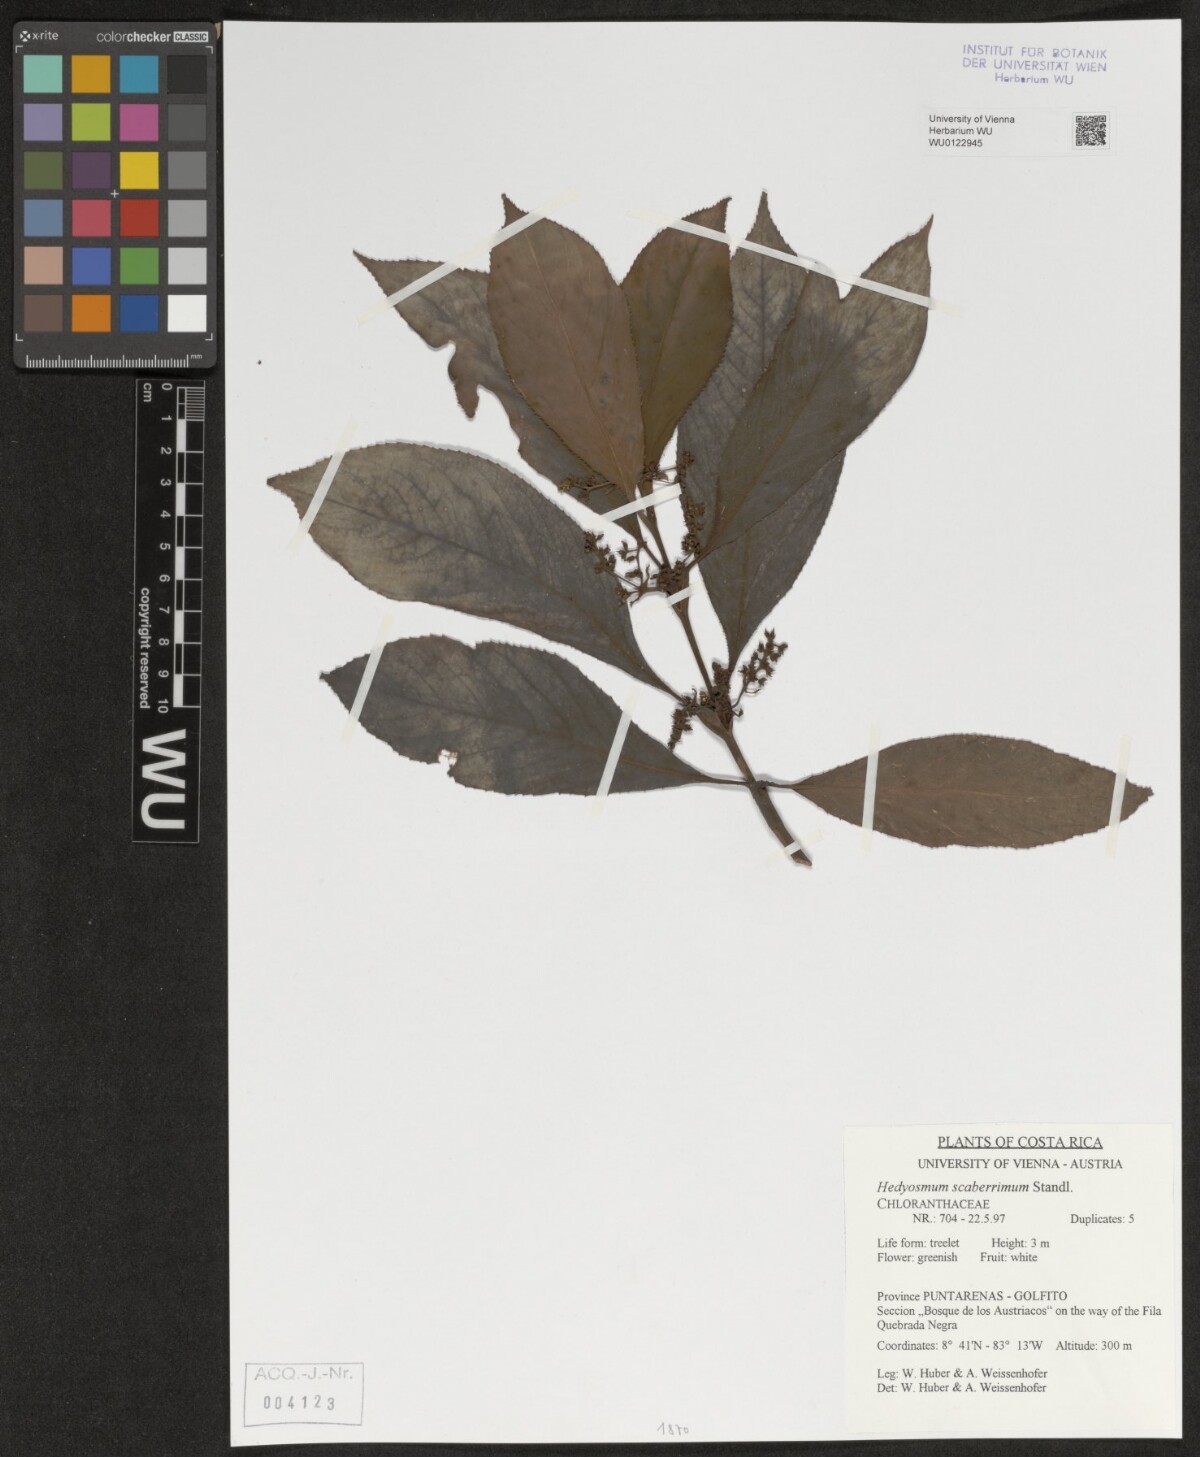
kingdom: Plantae
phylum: Tracheophyta
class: Magnoliopsida
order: Chloranthales
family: Chloranthaceae
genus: Hedyosmum
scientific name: Hedyosmum scaberrimum
